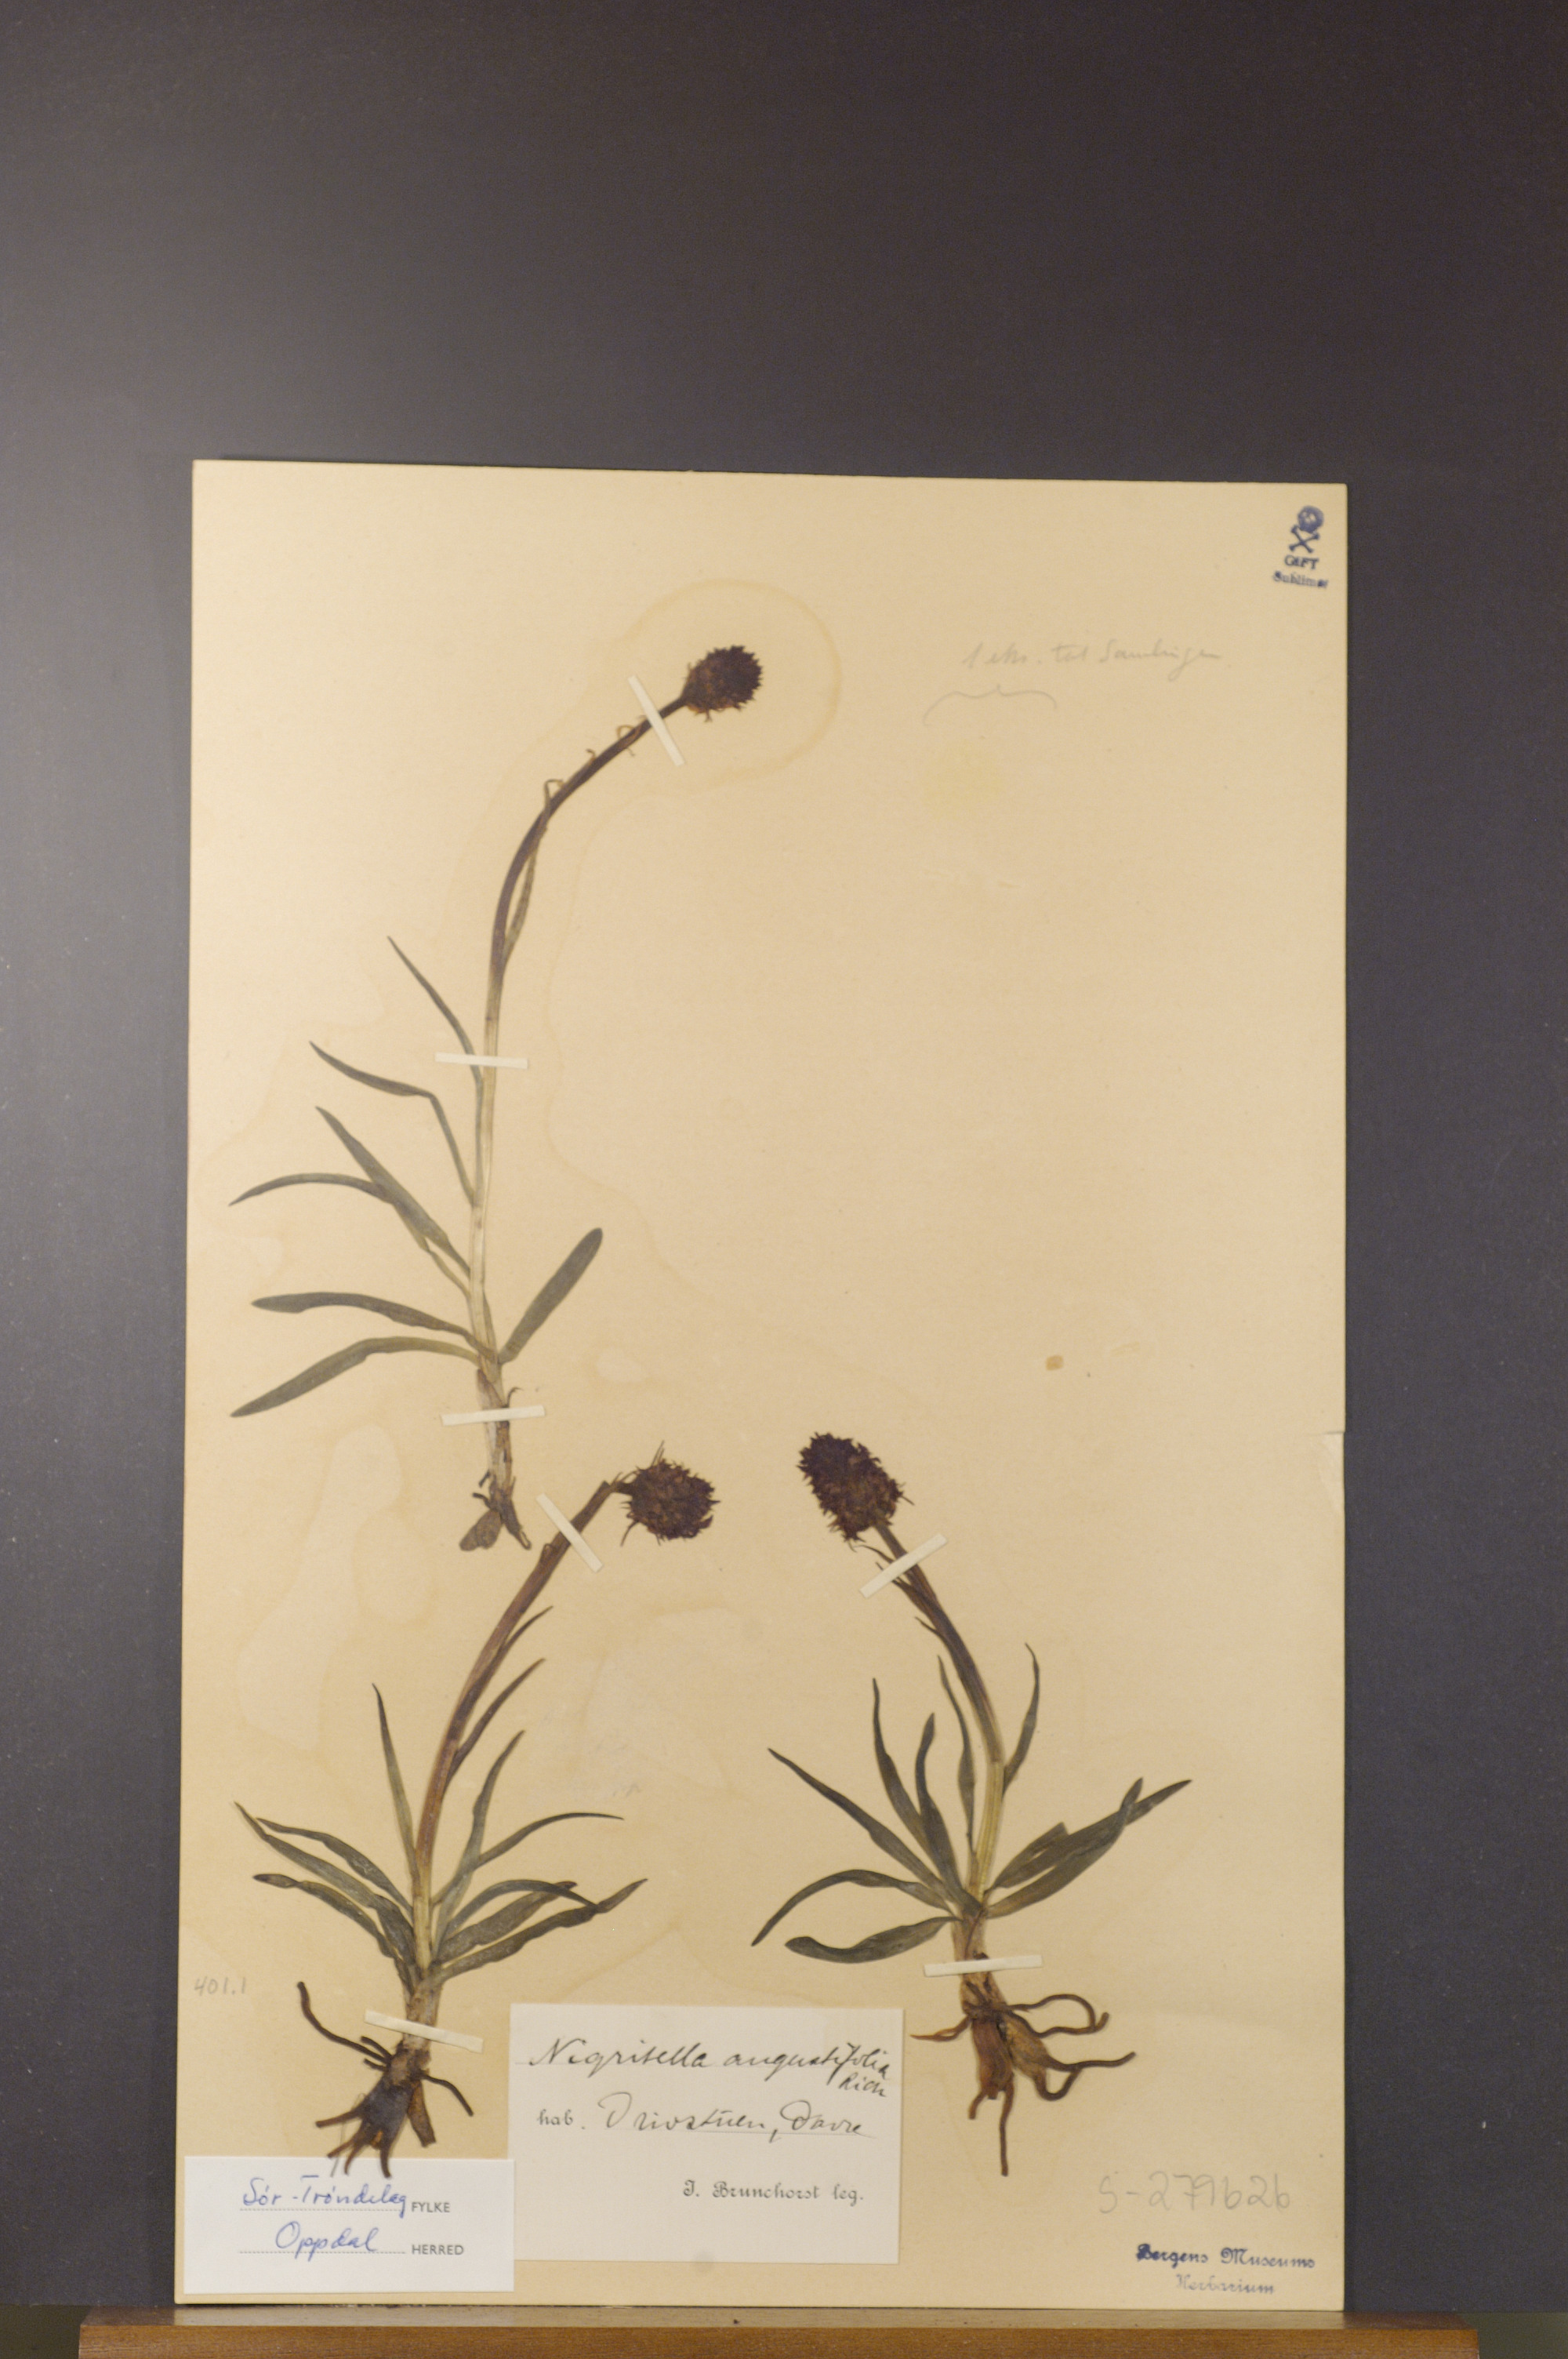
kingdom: Plantae
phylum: Tracheophyta
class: Liliopsida
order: Asparagales
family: Orchidaceae
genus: Gymnadenia
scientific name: Gymnadenia nigra
